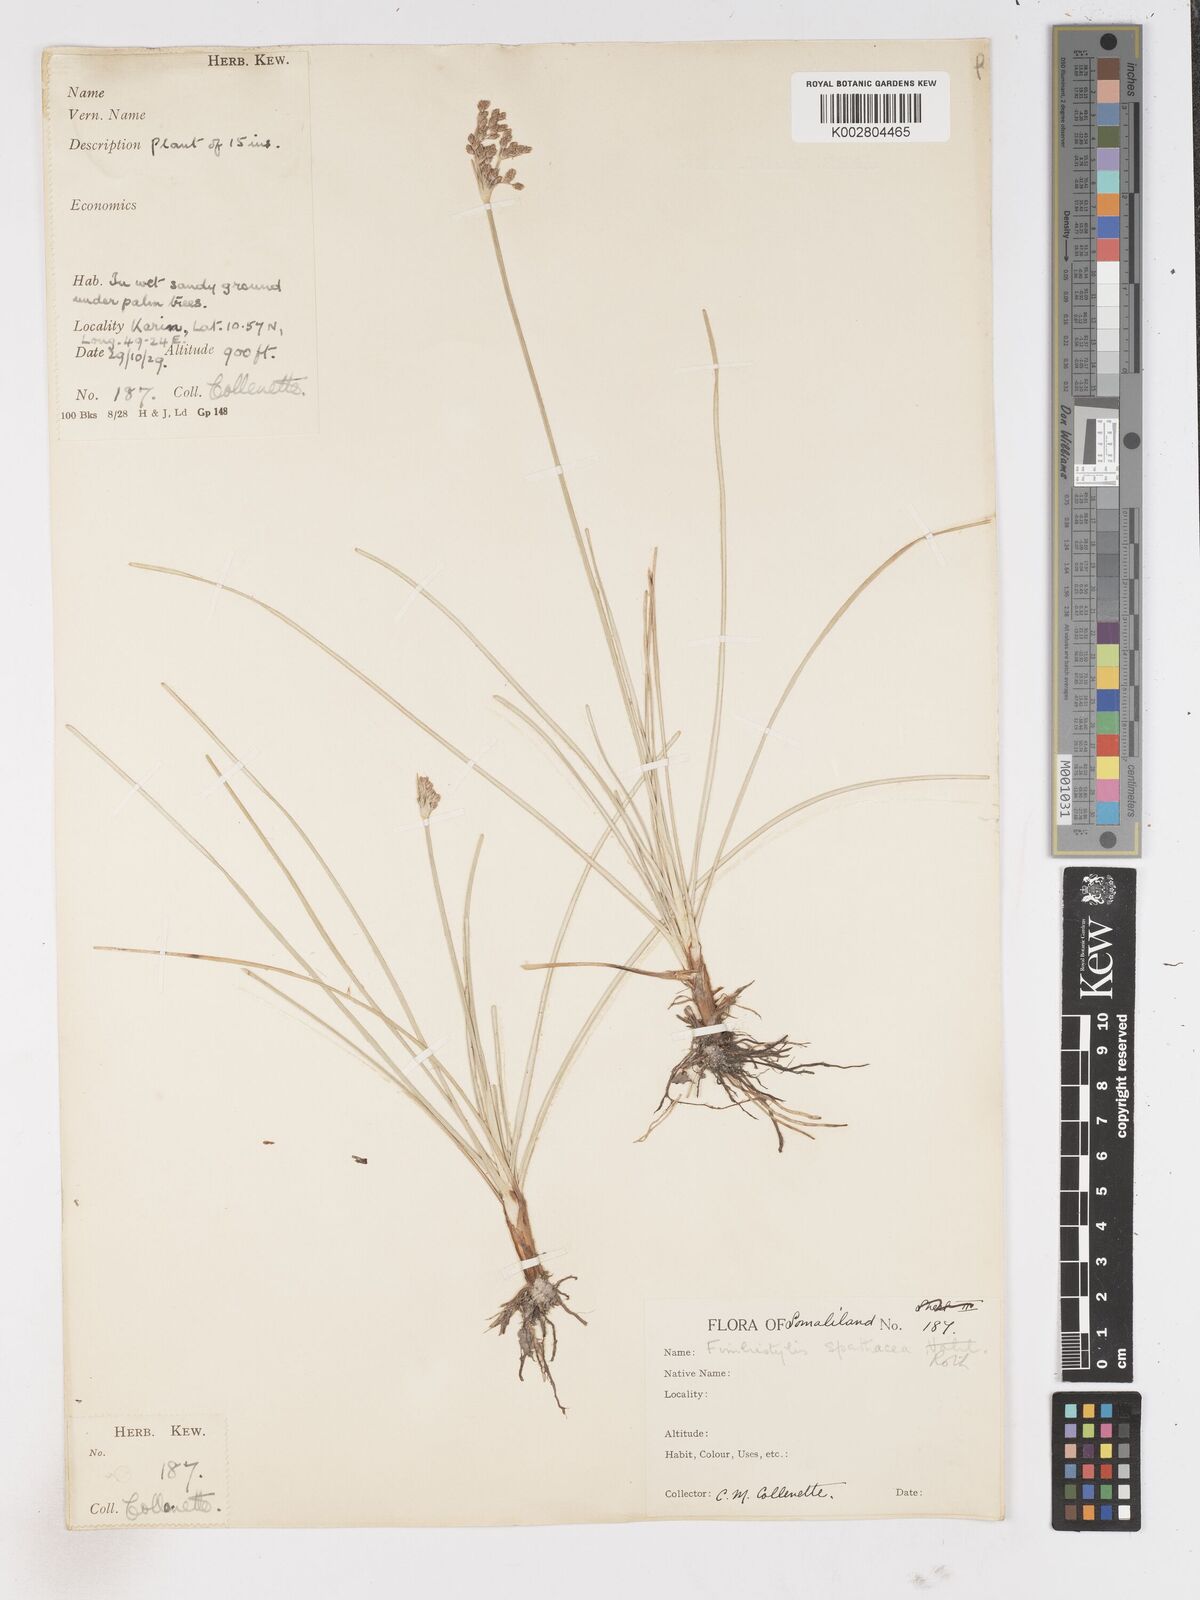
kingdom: Plantae
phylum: Tracheophyta
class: Liliopsida
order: Poales
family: Cyperaceae
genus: Fimbristylis
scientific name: Fimbristylis cymosa
